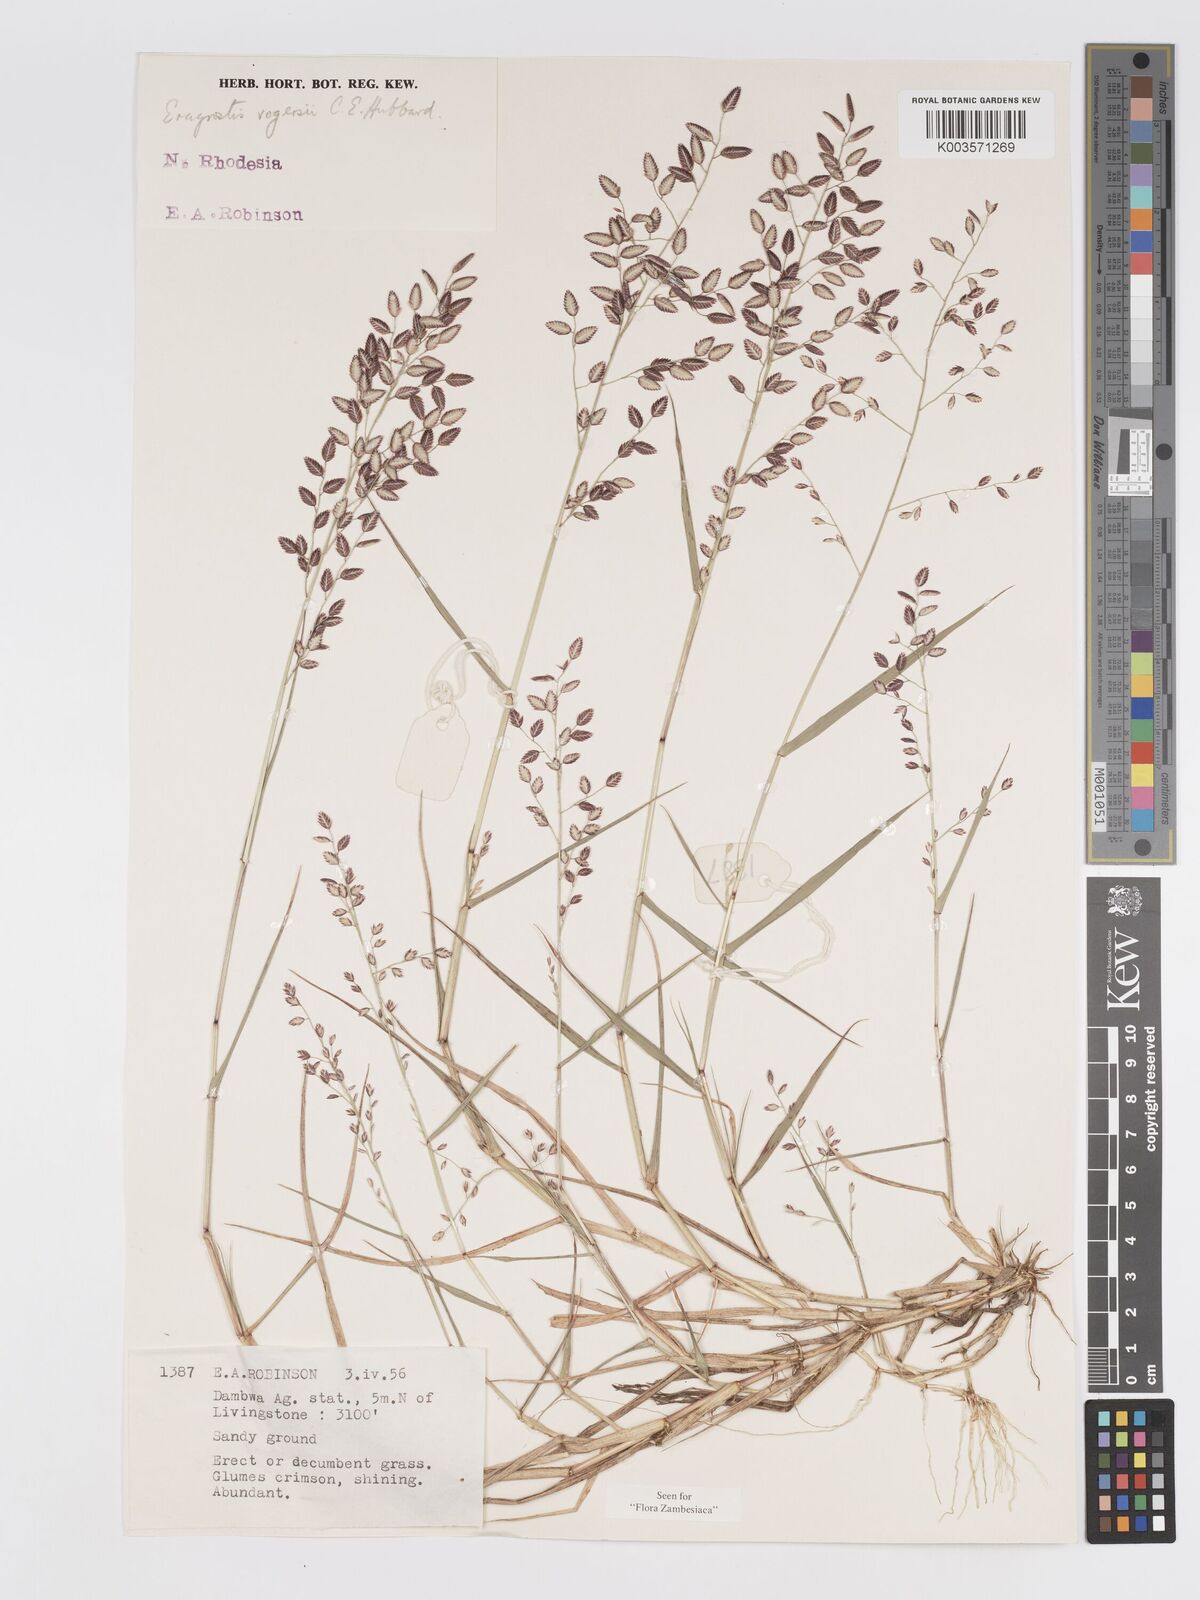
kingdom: Plantae
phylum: Tracheophyta
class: Liliopsida
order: Poales
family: Poaceae
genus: Eragrostis
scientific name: Eragrostis rogersii
